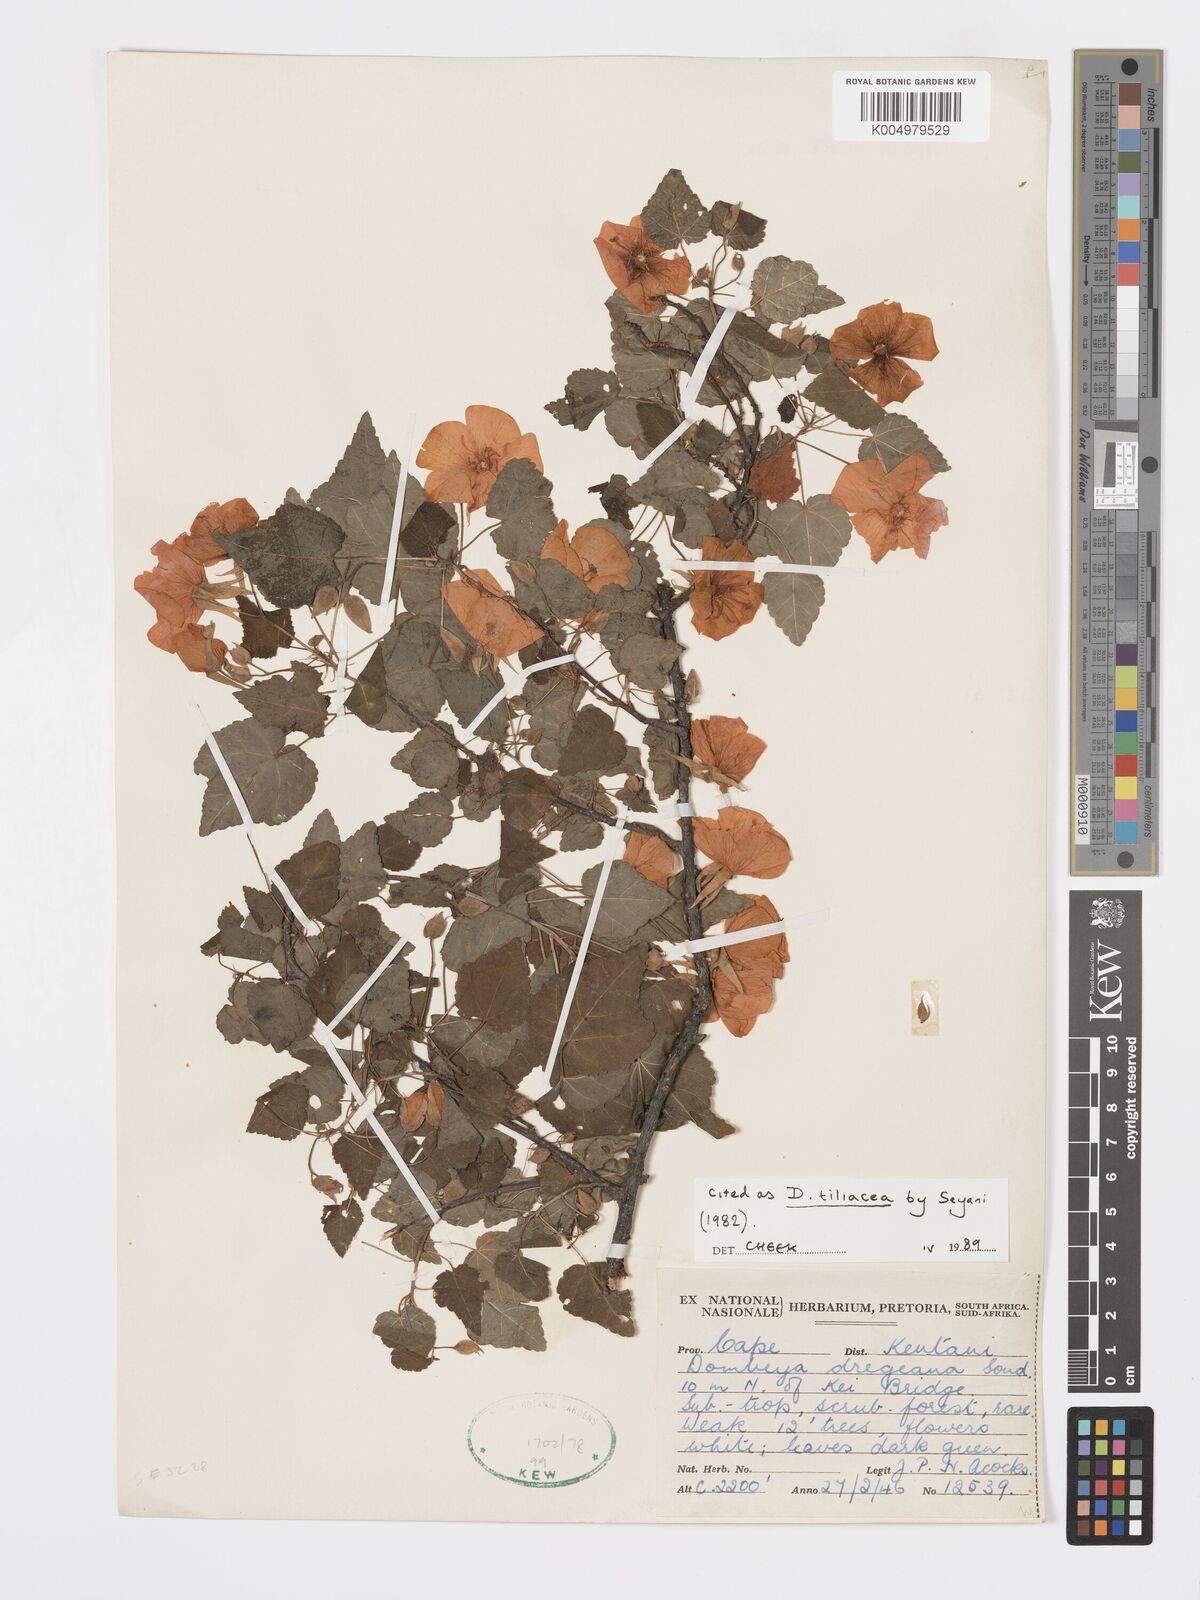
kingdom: Plantae
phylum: Tracheophyta
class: Magnoliopsida
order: Malvales
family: Malvaceae
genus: Dombeya
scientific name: Dombeya tiliacea
